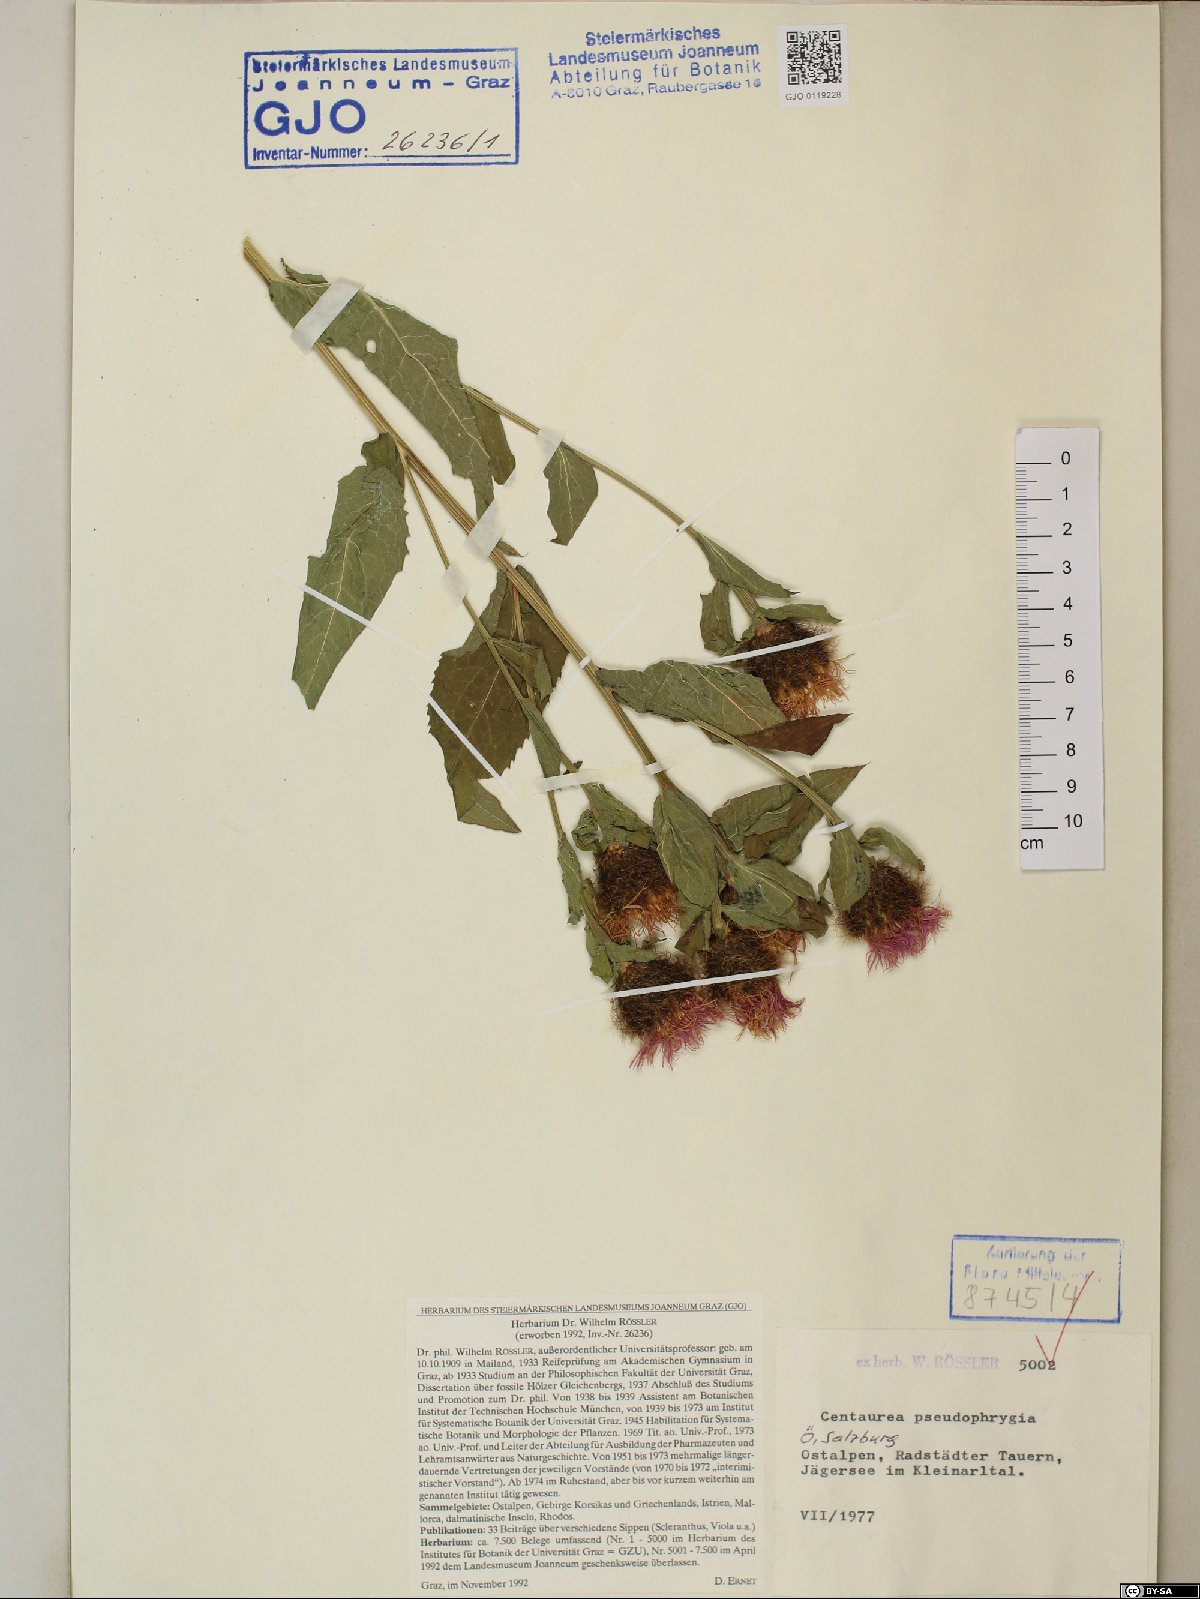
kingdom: Plantae
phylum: Tracheophyta
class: Magnoliopsida
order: Asterales
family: Asteraceae
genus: Centaurea
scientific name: Centaurea pseudophrygia
